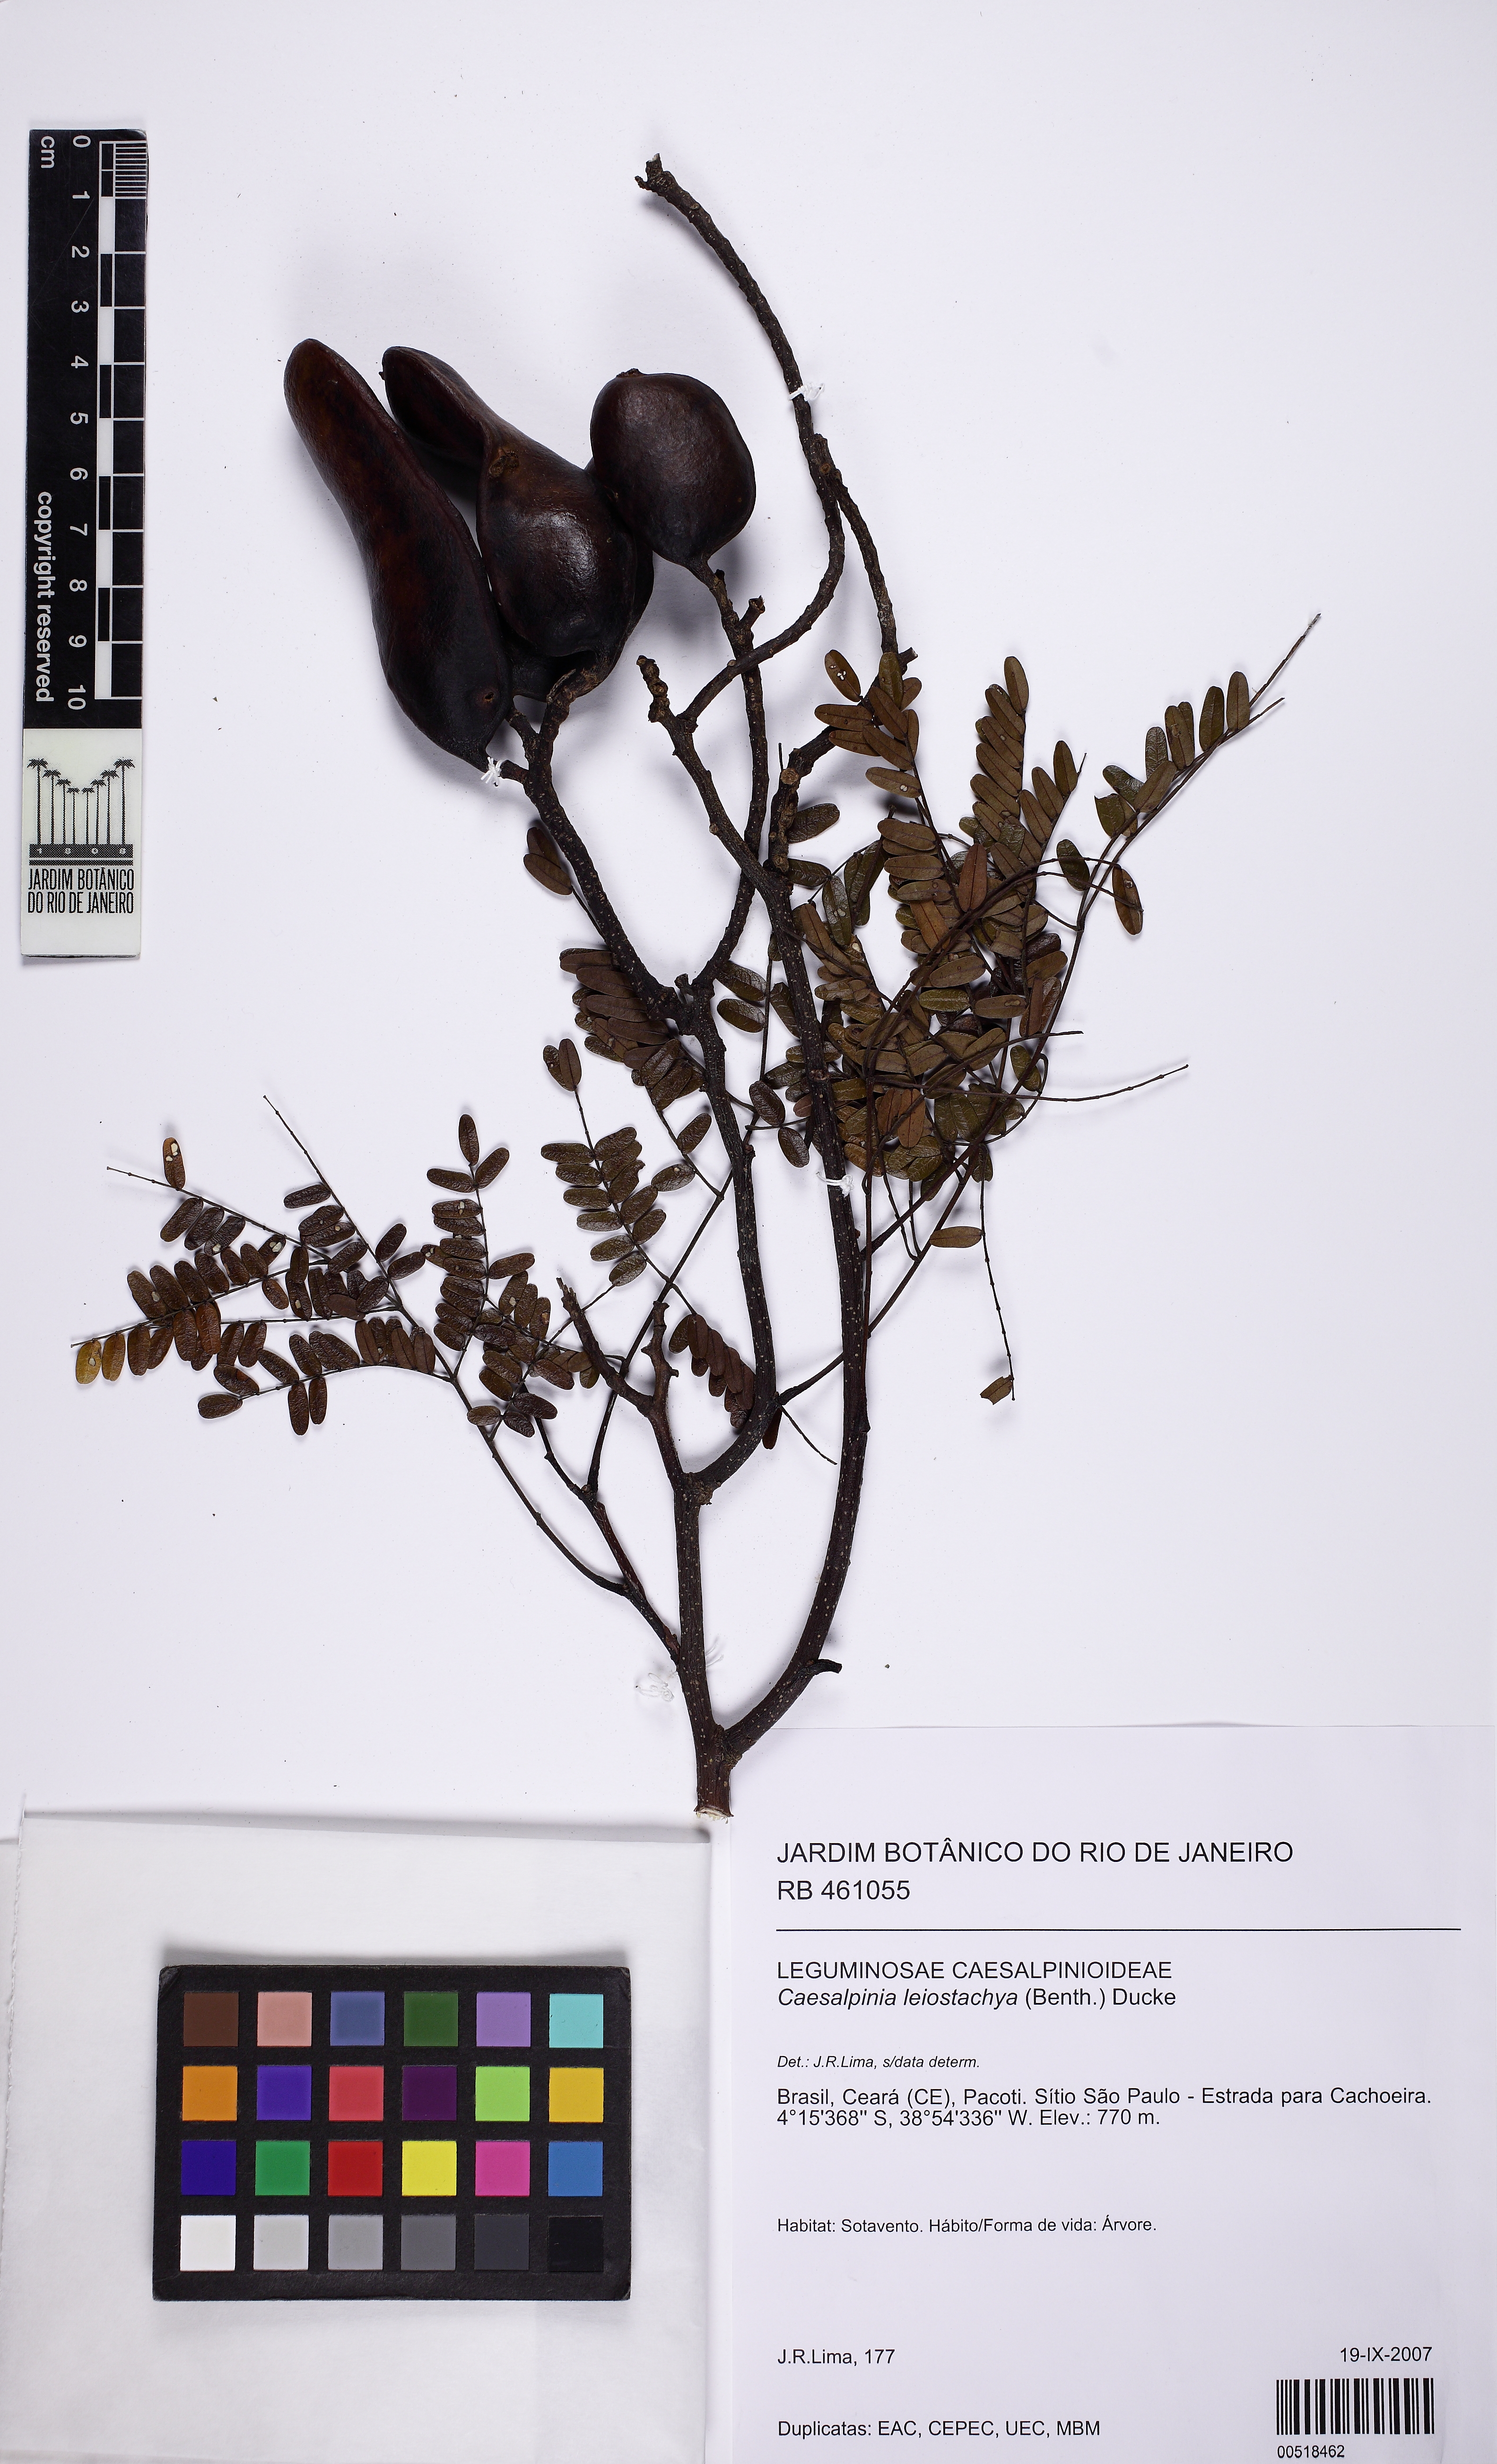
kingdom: Plantae
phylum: Tracheophyta
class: Magnoliopsida
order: Fabales
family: Fabaceae
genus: Libidibia
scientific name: Libidibia ferrea
